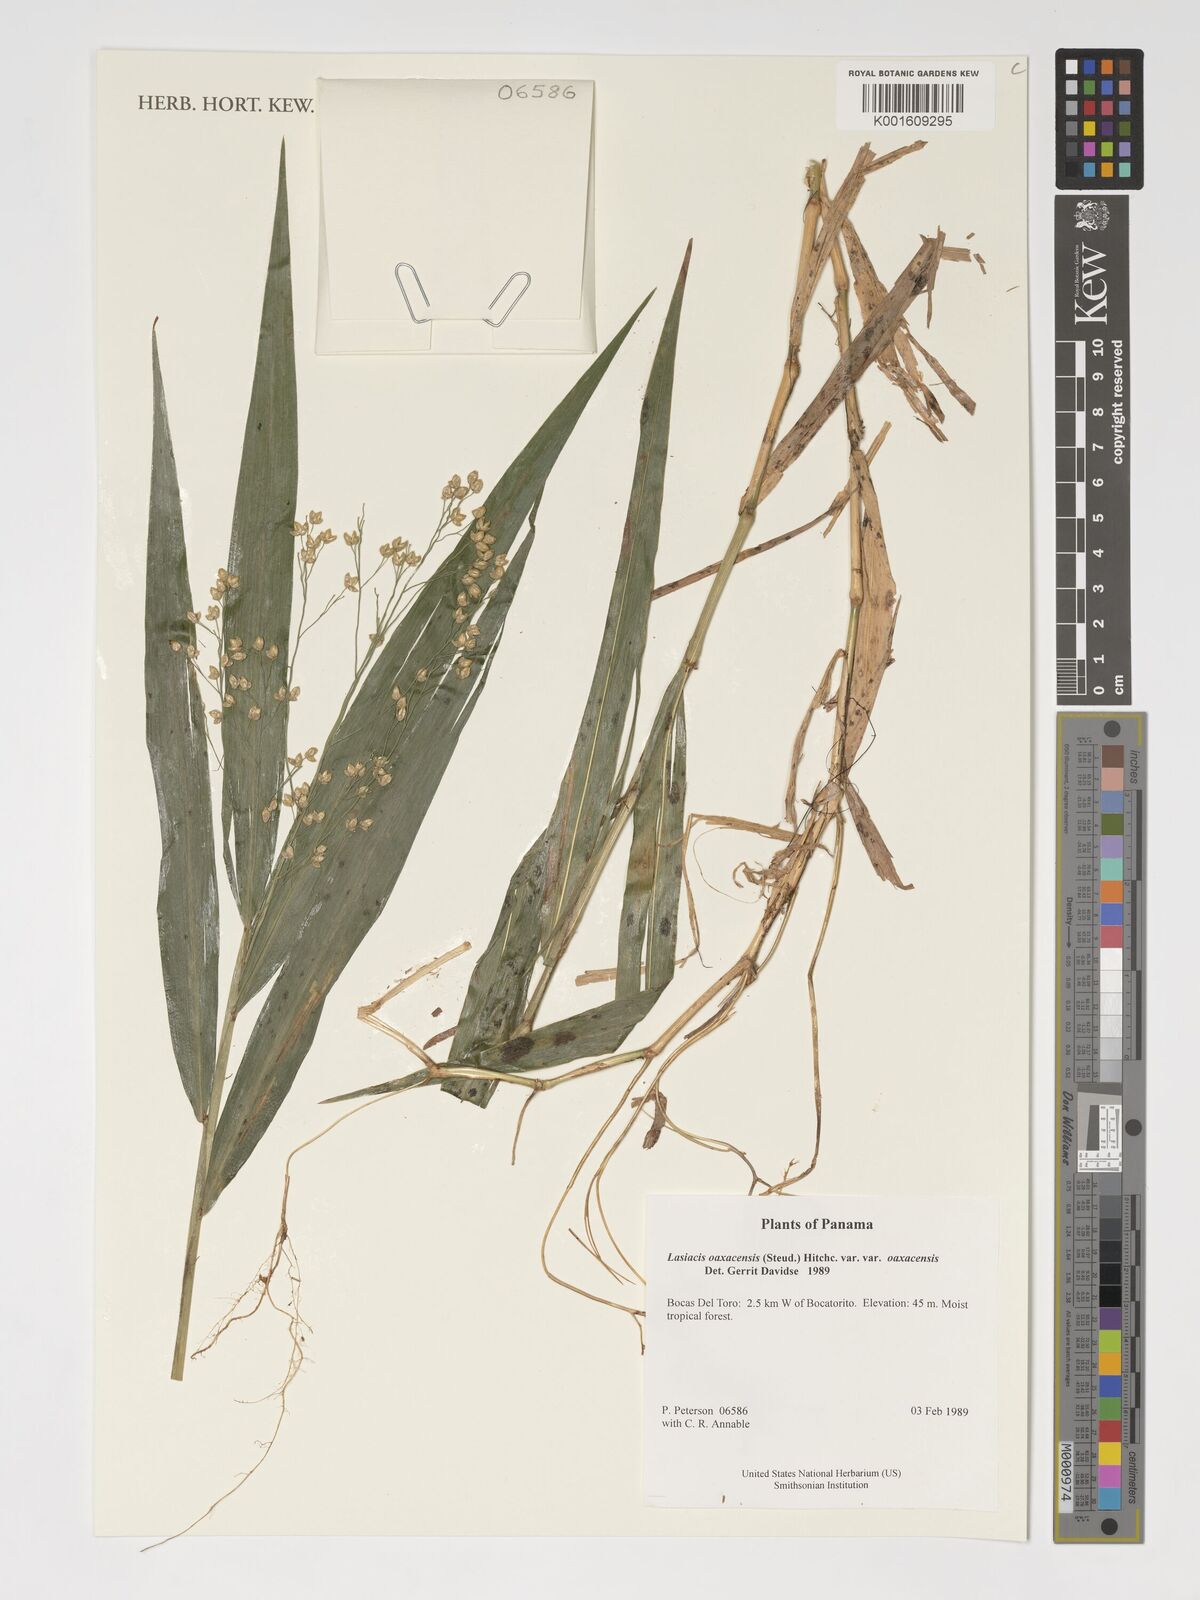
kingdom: Plantae
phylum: Tracheophyta
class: Liliopsida
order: Poales
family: Poaceae
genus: Lasiacis
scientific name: Lasiacis oaxacensis
